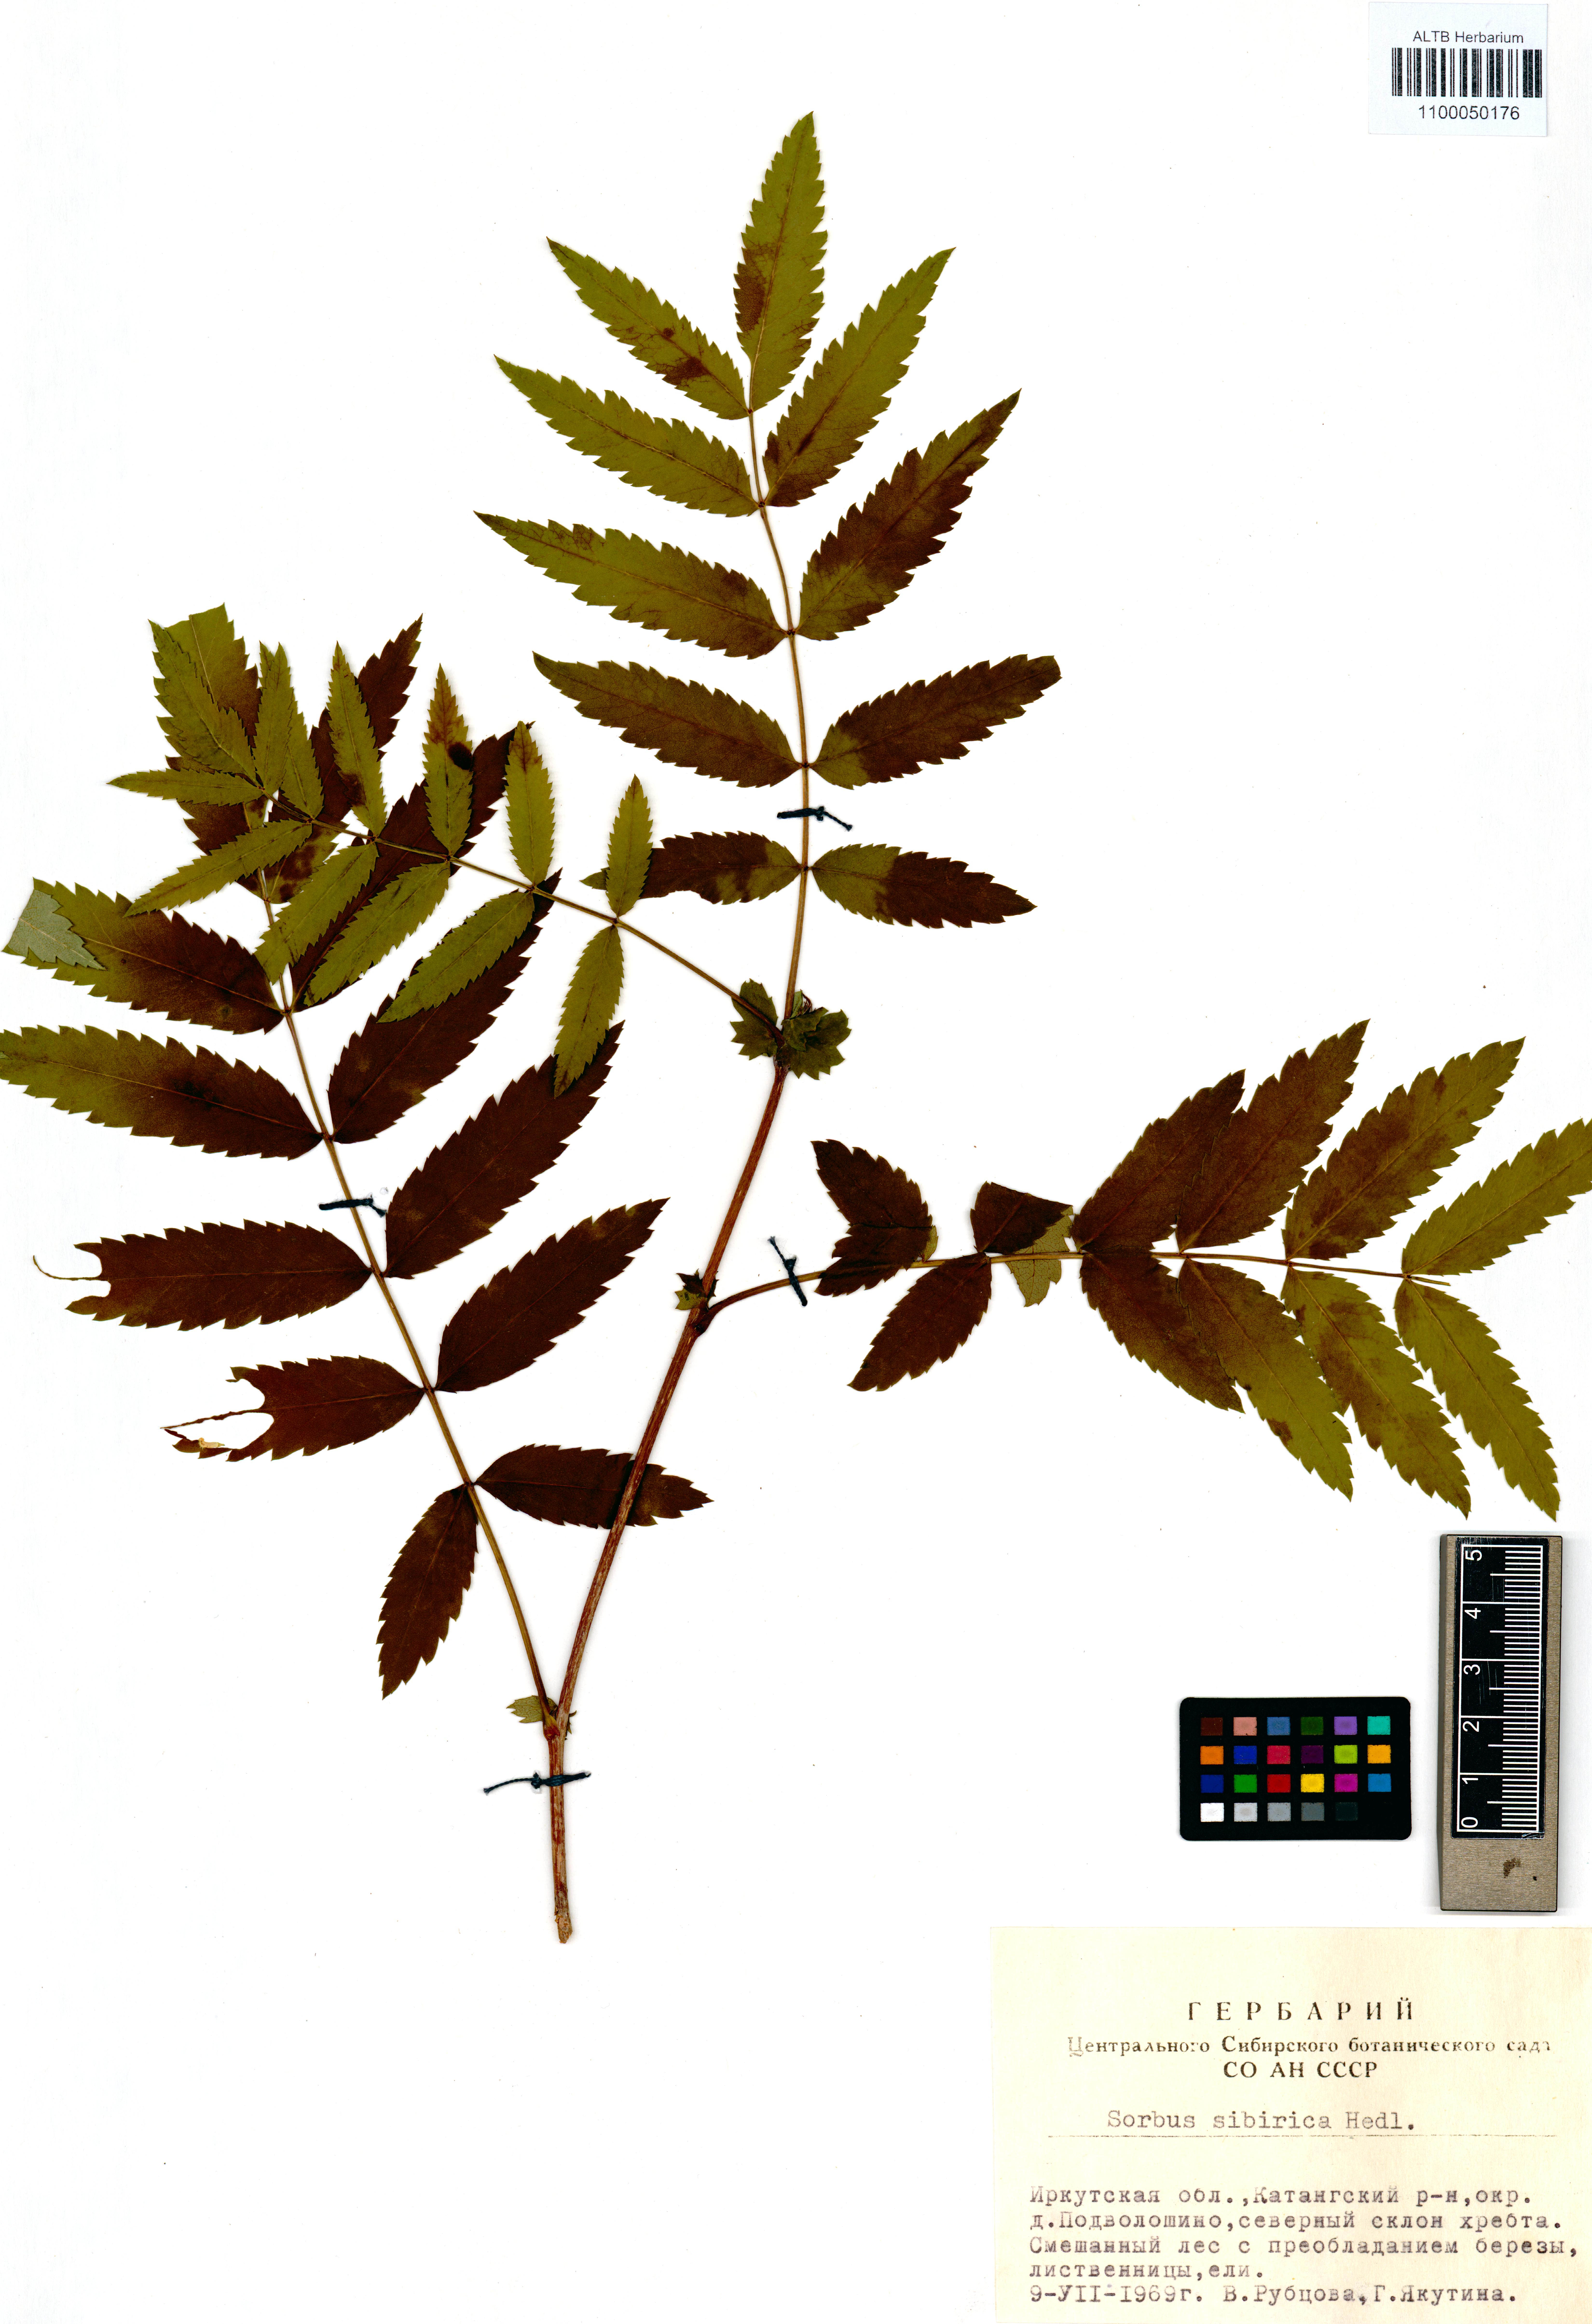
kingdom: Plantae
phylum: Tracheophyta
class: Magnoliopsida
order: Rosales
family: Rosaceae
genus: Sorbus
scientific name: Sorbus aucuparia
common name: Rowan
